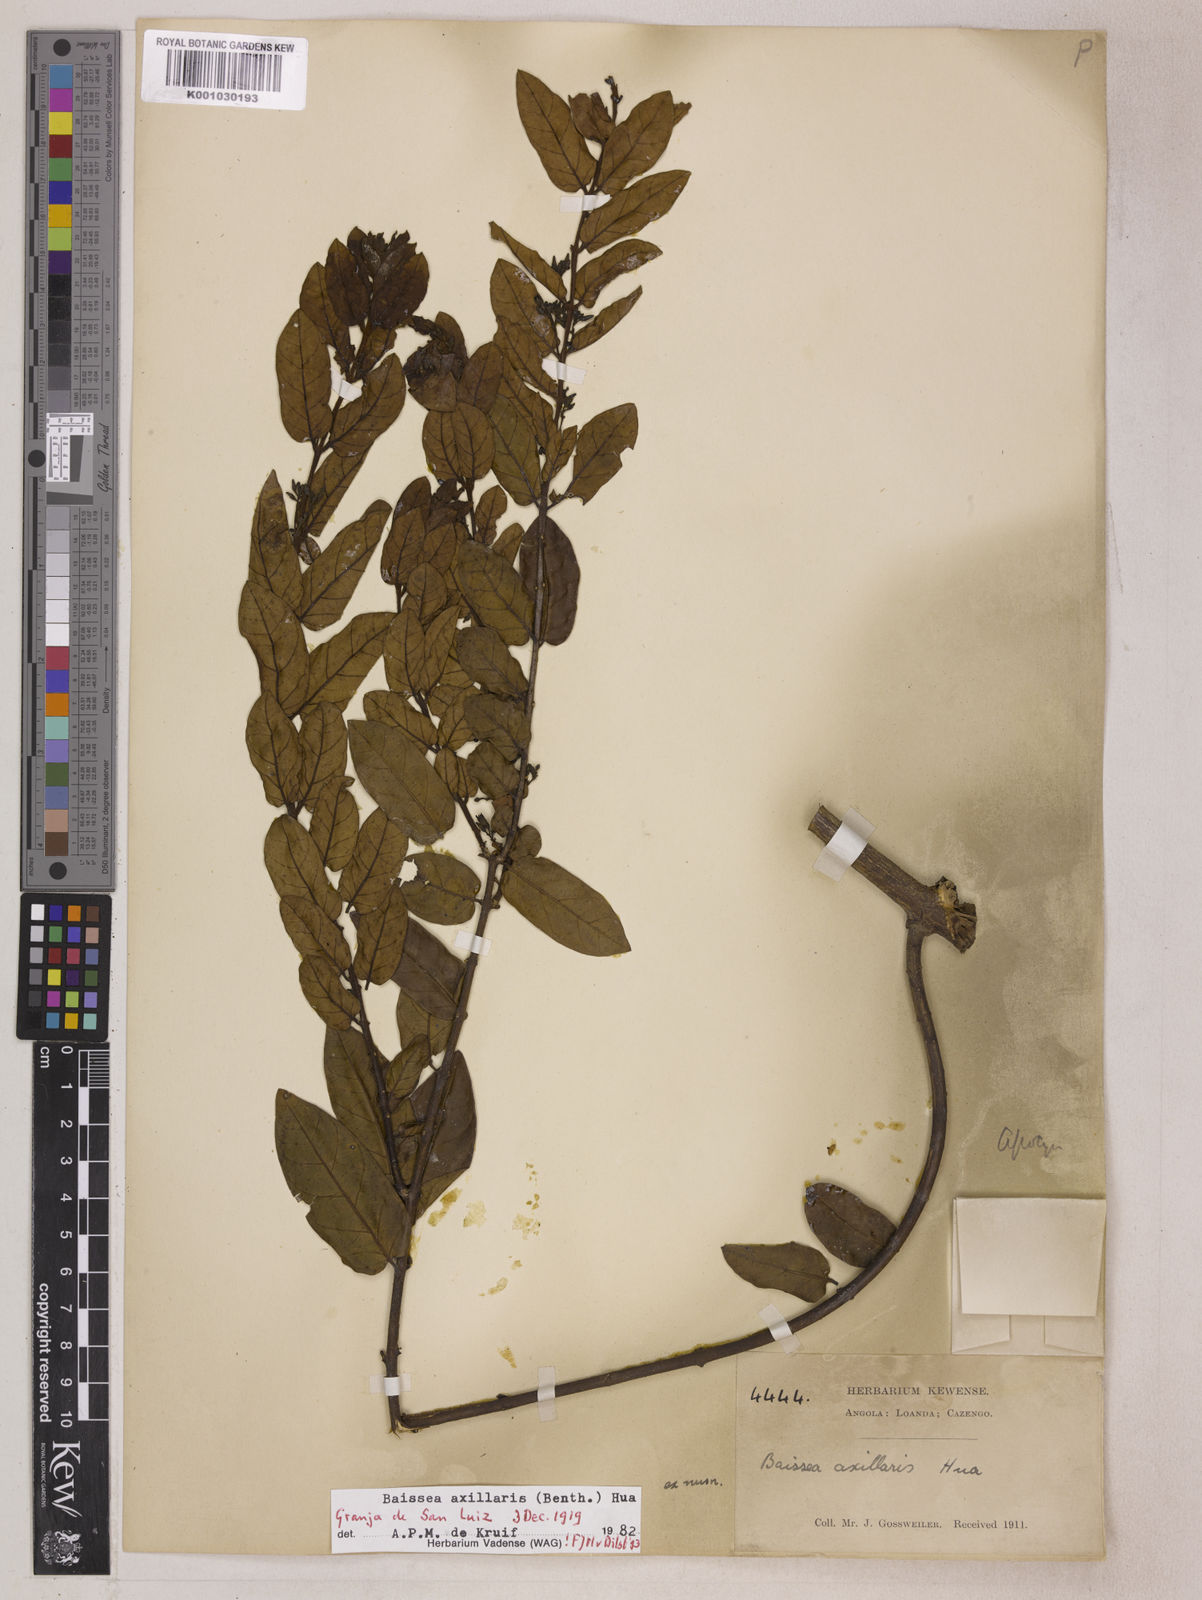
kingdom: Plantae
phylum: Tracheophyta
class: Magnoliopsida
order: Gentianales
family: Apocynaceae
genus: Baissea
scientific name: Baissea axillaris
